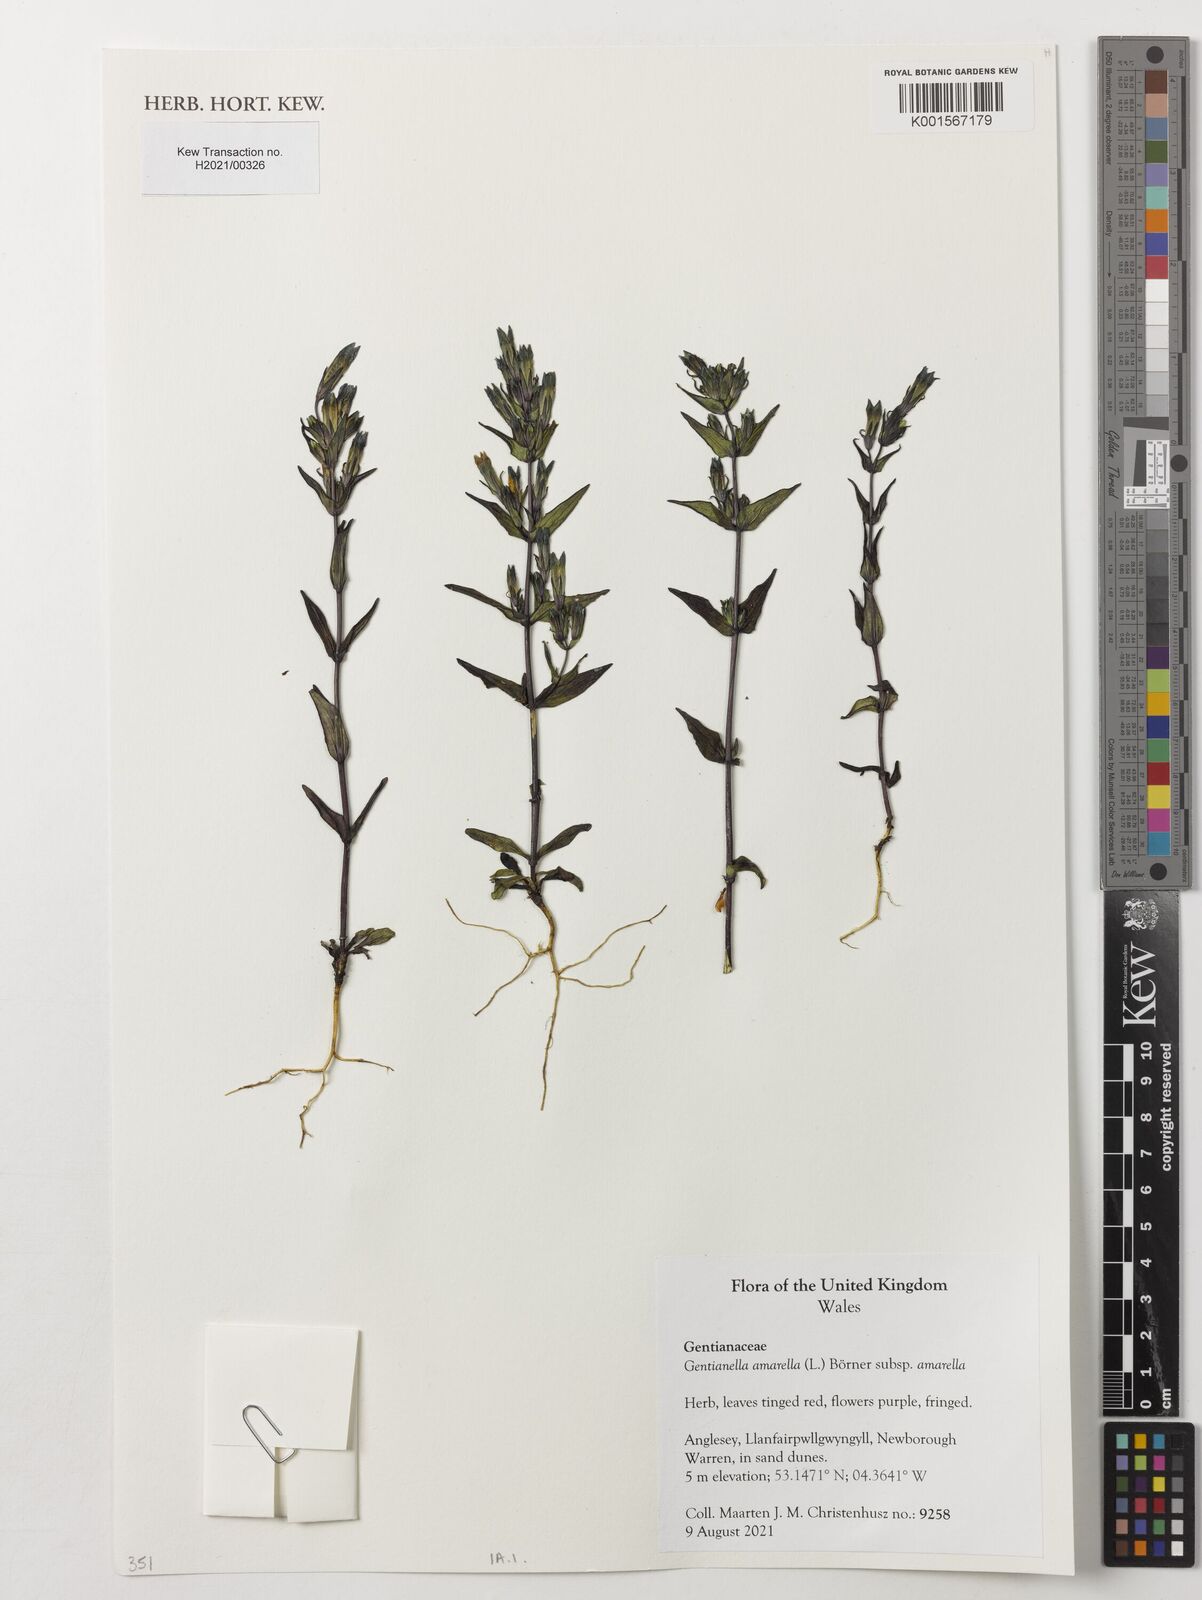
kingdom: Plantae
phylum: Tracheophyta
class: Magnoliopsida
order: Gentianales
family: Gentianaceae
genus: Gentianella
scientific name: Gentianella amarella
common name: Autumn gentian
